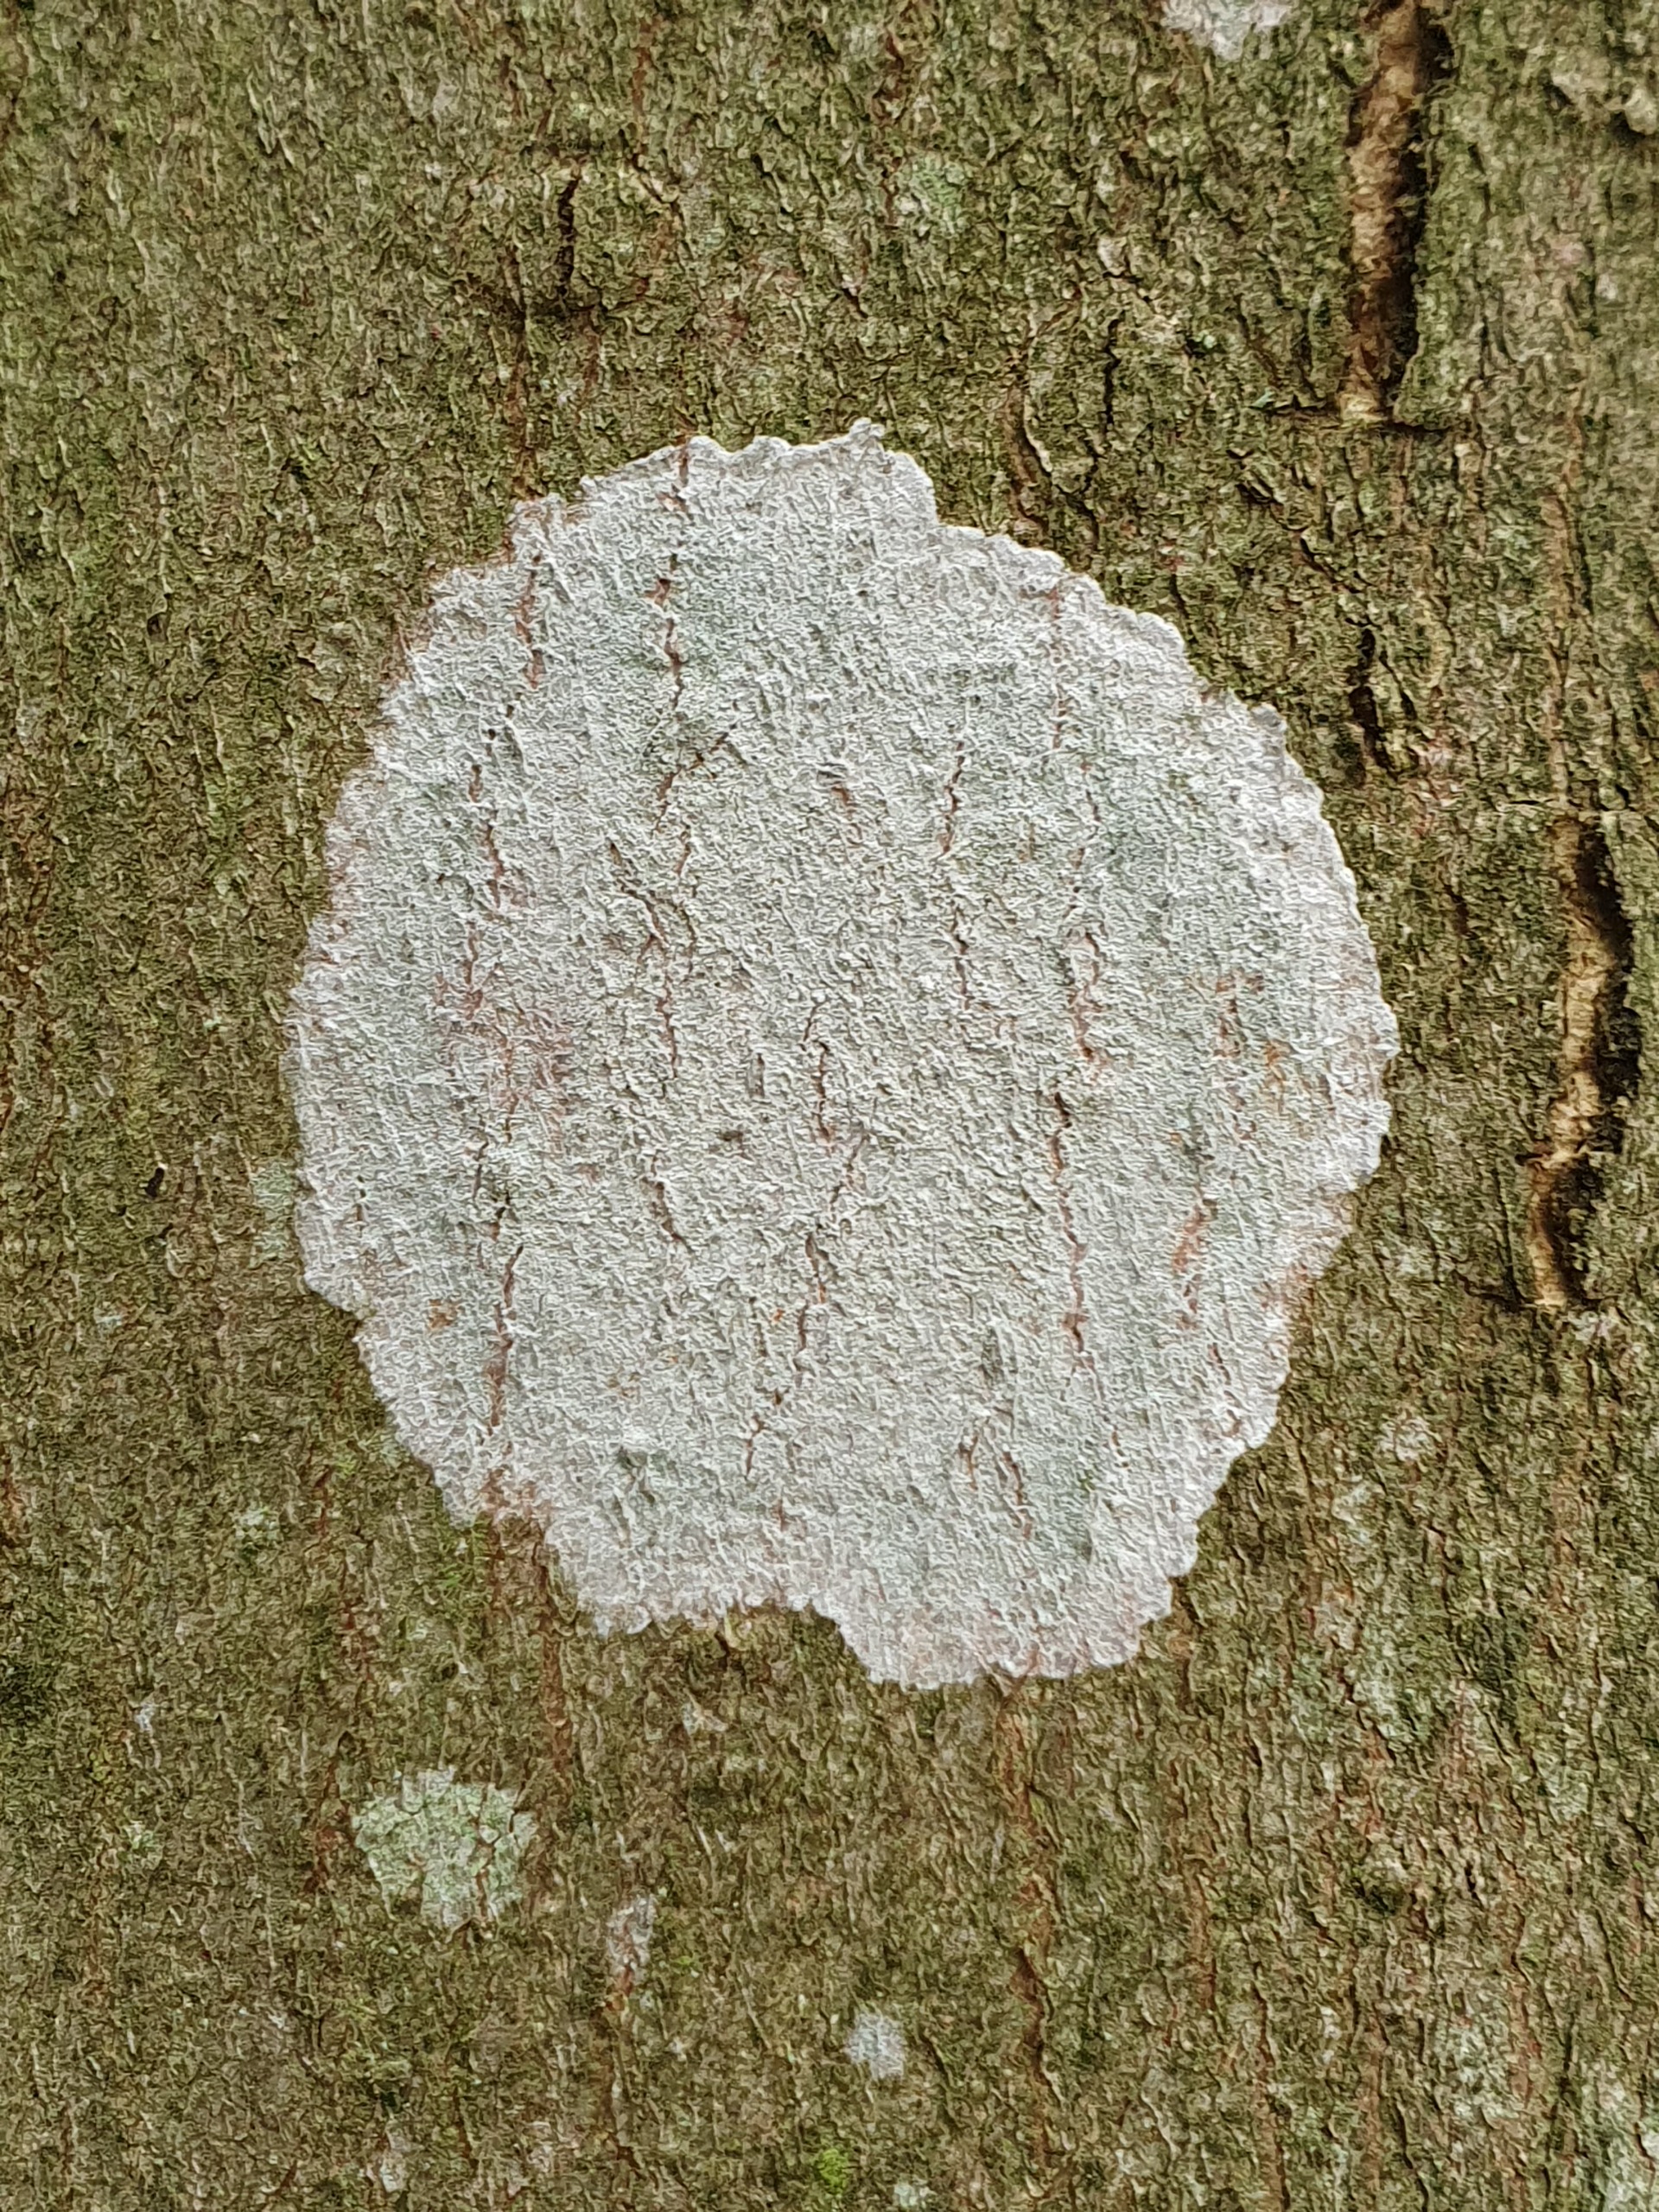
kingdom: Fungi
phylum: Ascomycota
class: Lecanoromycetes
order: Ostropales
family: Phlyctidaceae
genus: Phlyctis
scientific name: Phlyctis argena
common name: Almindelig sølvlav
